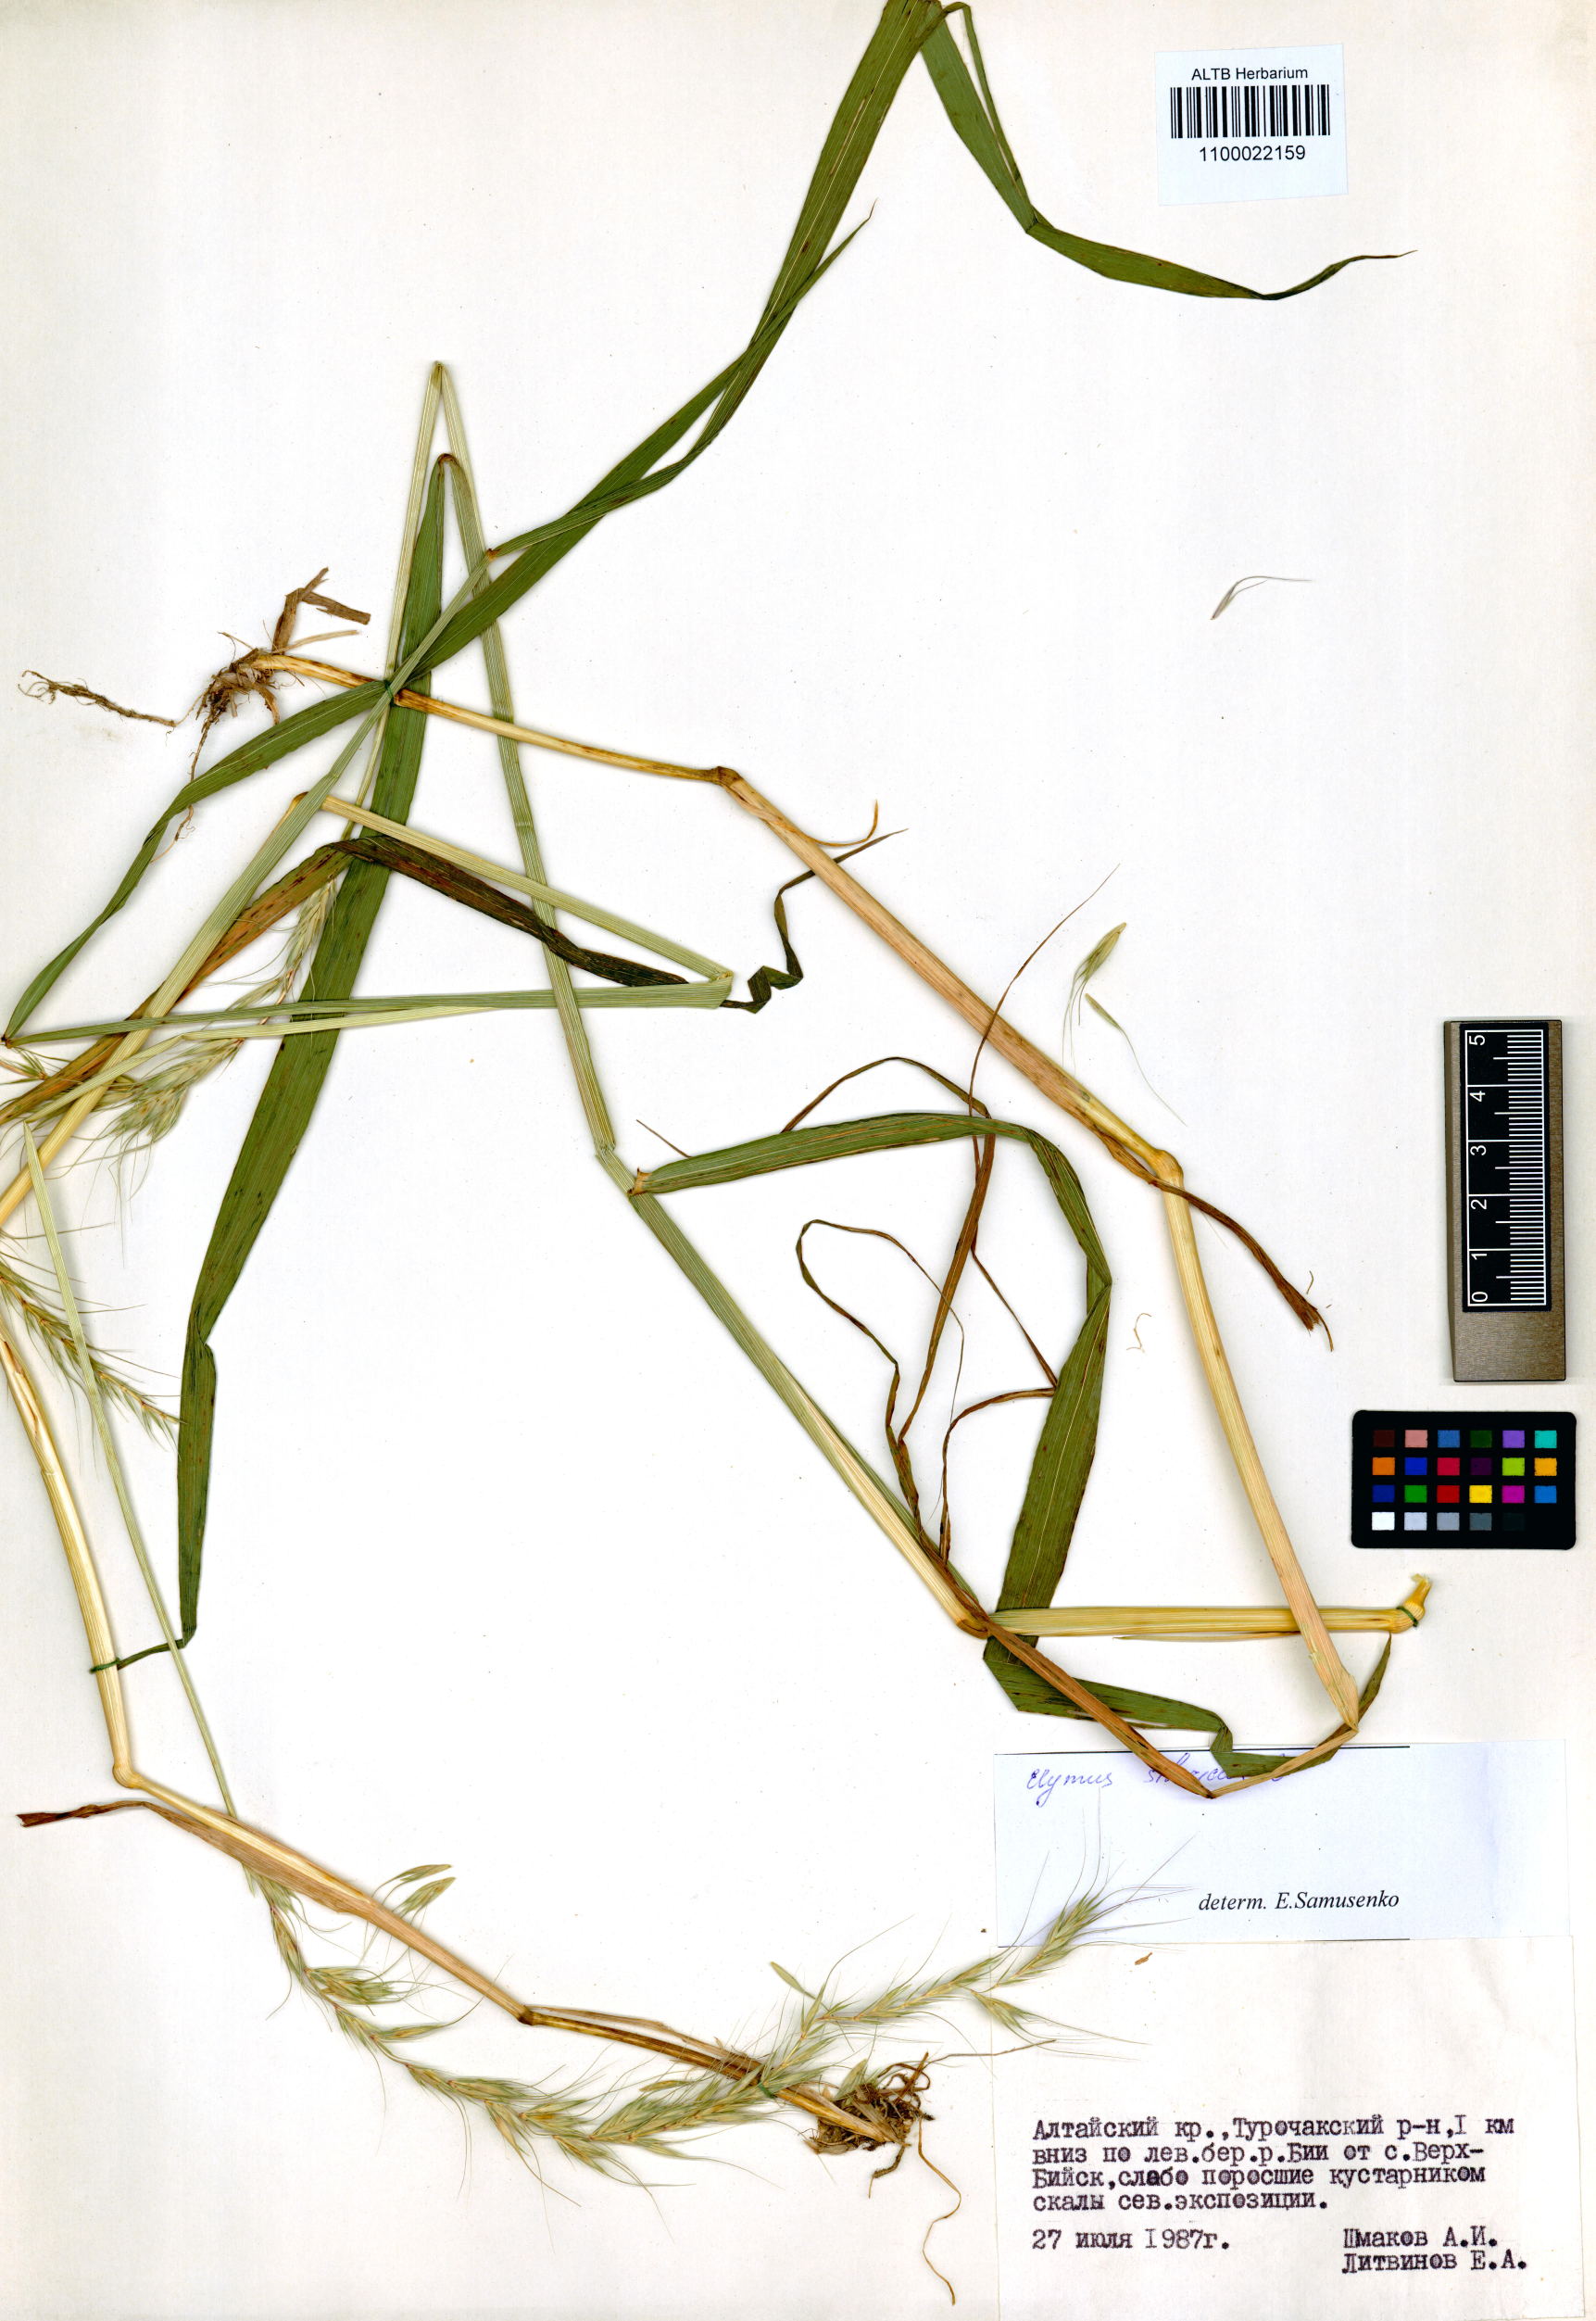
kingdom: Plantae
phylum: Tracheophyta
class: Liliopsida
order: Poales
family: Poaceae
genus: Elymus
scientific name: Elymus sibiricus
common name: Siberian wildrye
